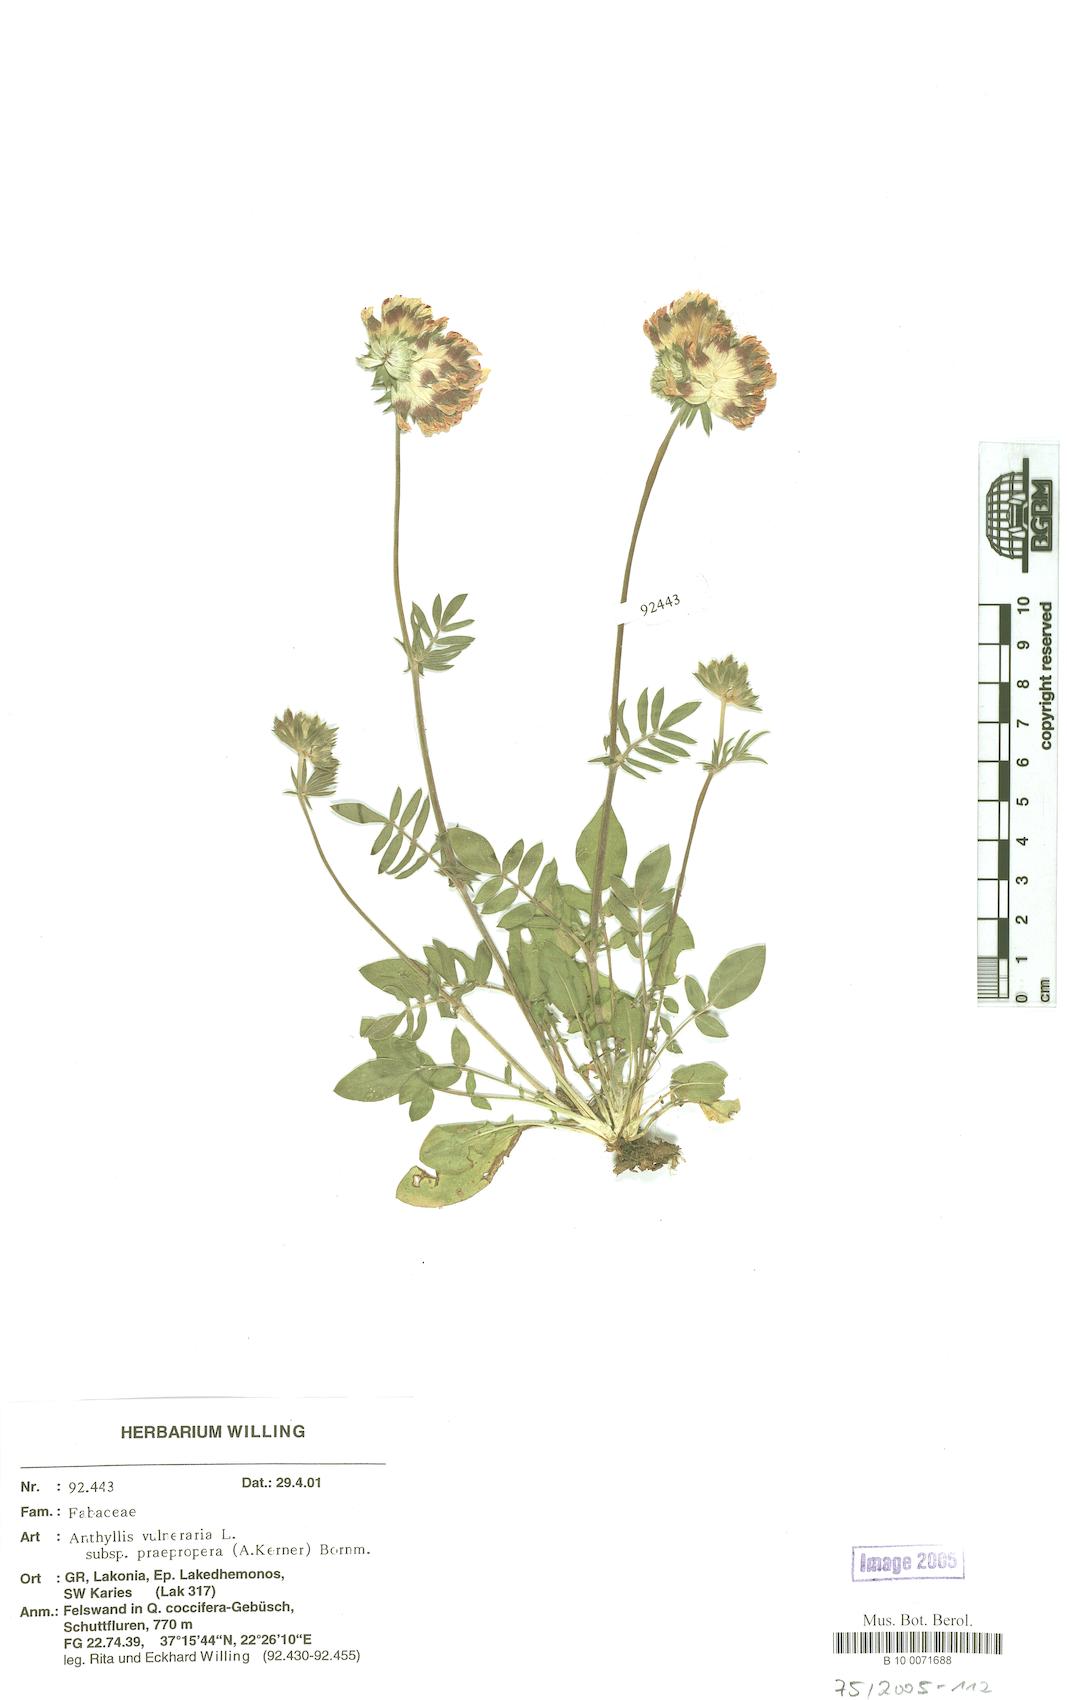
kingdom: Plantae
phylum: Tracheophyta
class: Magnoliopsida
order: Fabales
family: Fabaceae
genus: Anthyllis
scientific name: Anthyllis vulneraria
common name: Kidney vetch
